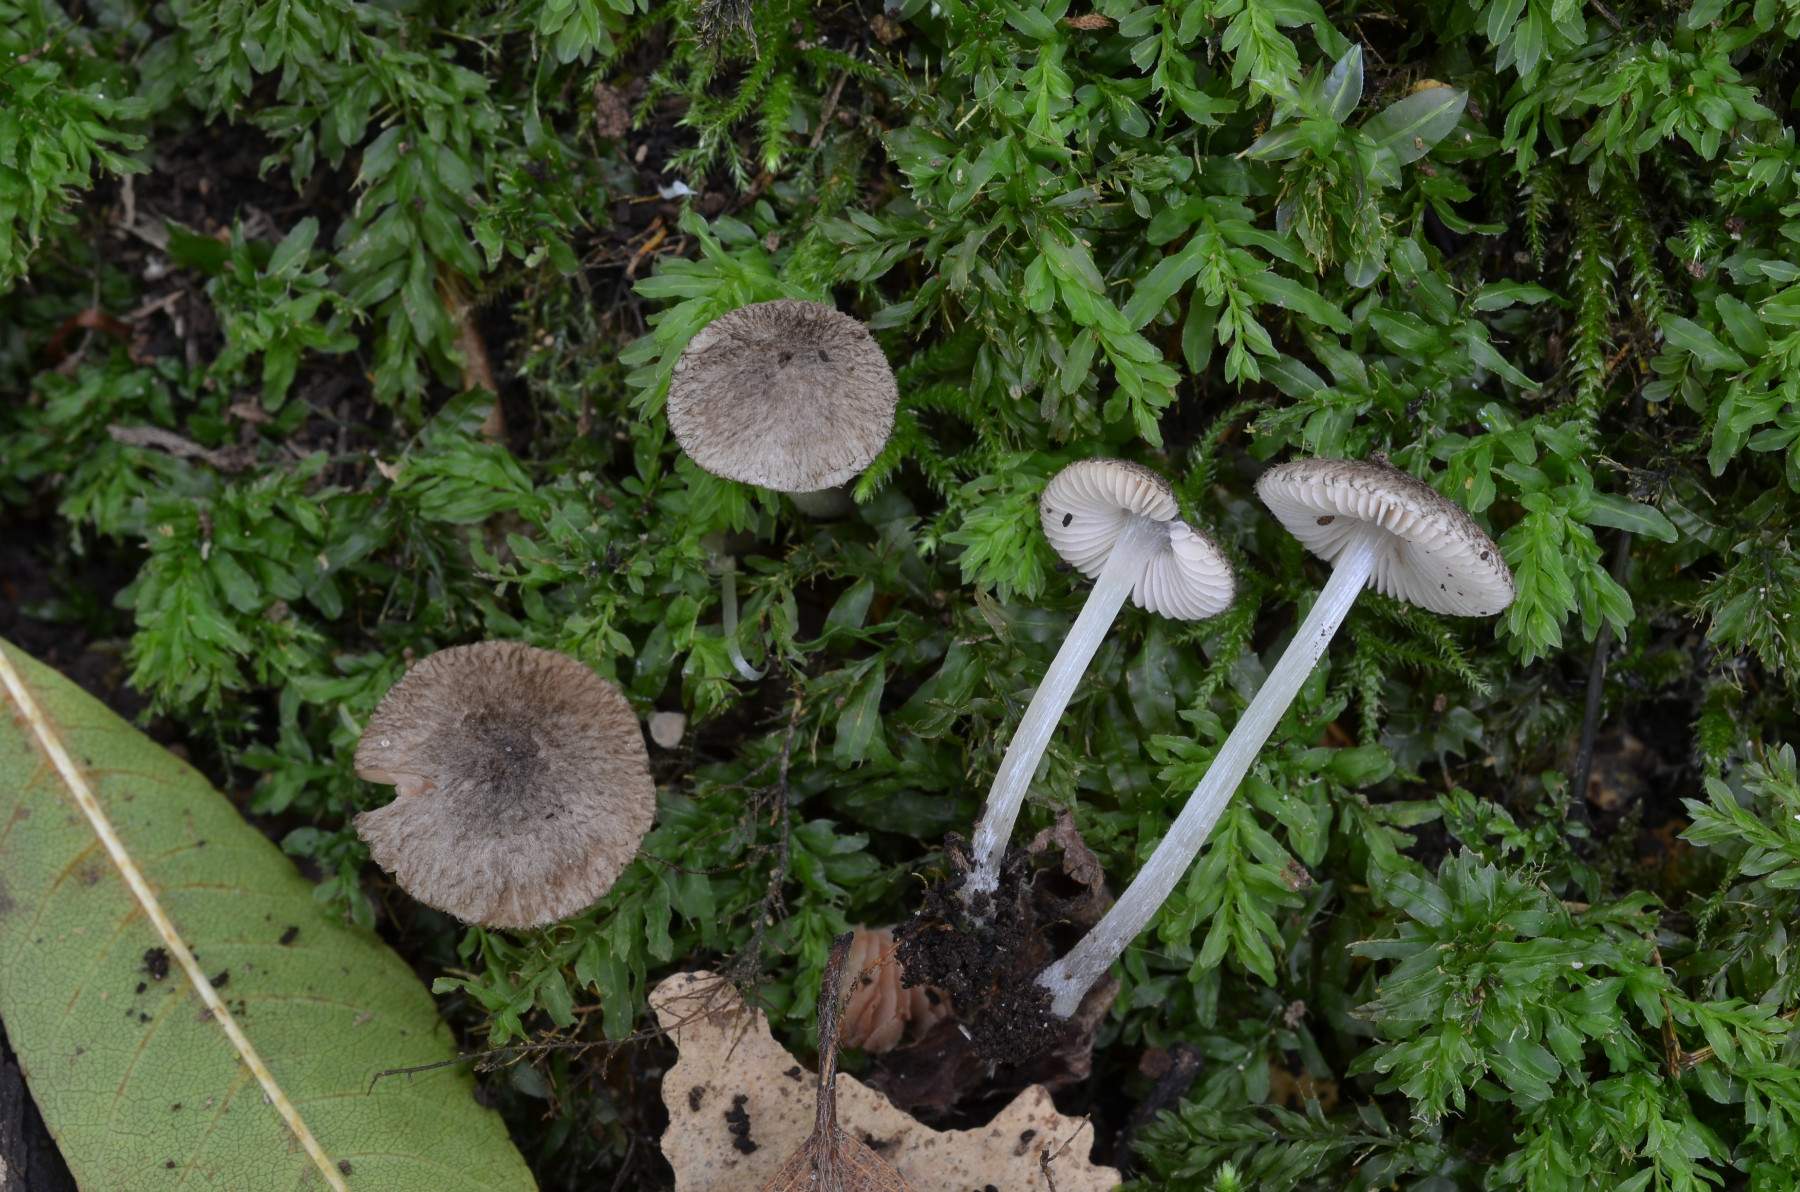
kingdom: Fungi
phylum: Basidiomycota
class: Agaricomycetes
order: Agaricales
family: Pluteaceae
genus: Pluteus
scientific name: Pluteus hispidulus
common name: Fleecy shield
